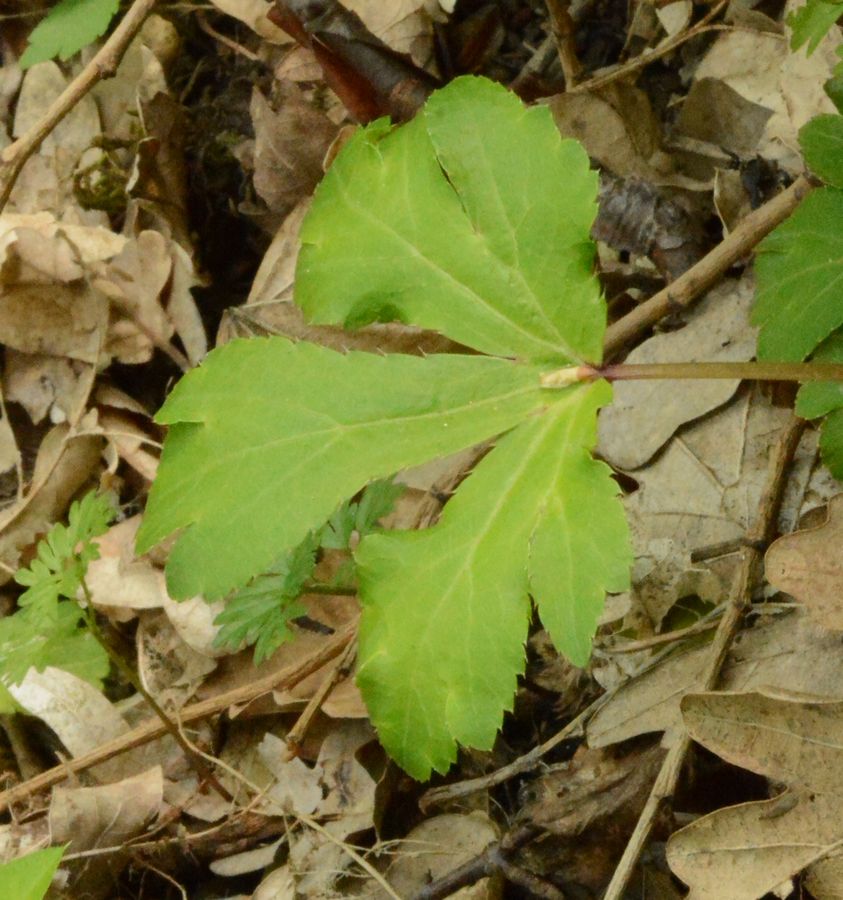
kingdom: Plantae
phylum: Tracheophyta
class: Magnoliopsida
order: Apiales
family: Apiaceae
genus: Sanicula
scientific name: Sanicula europaea
